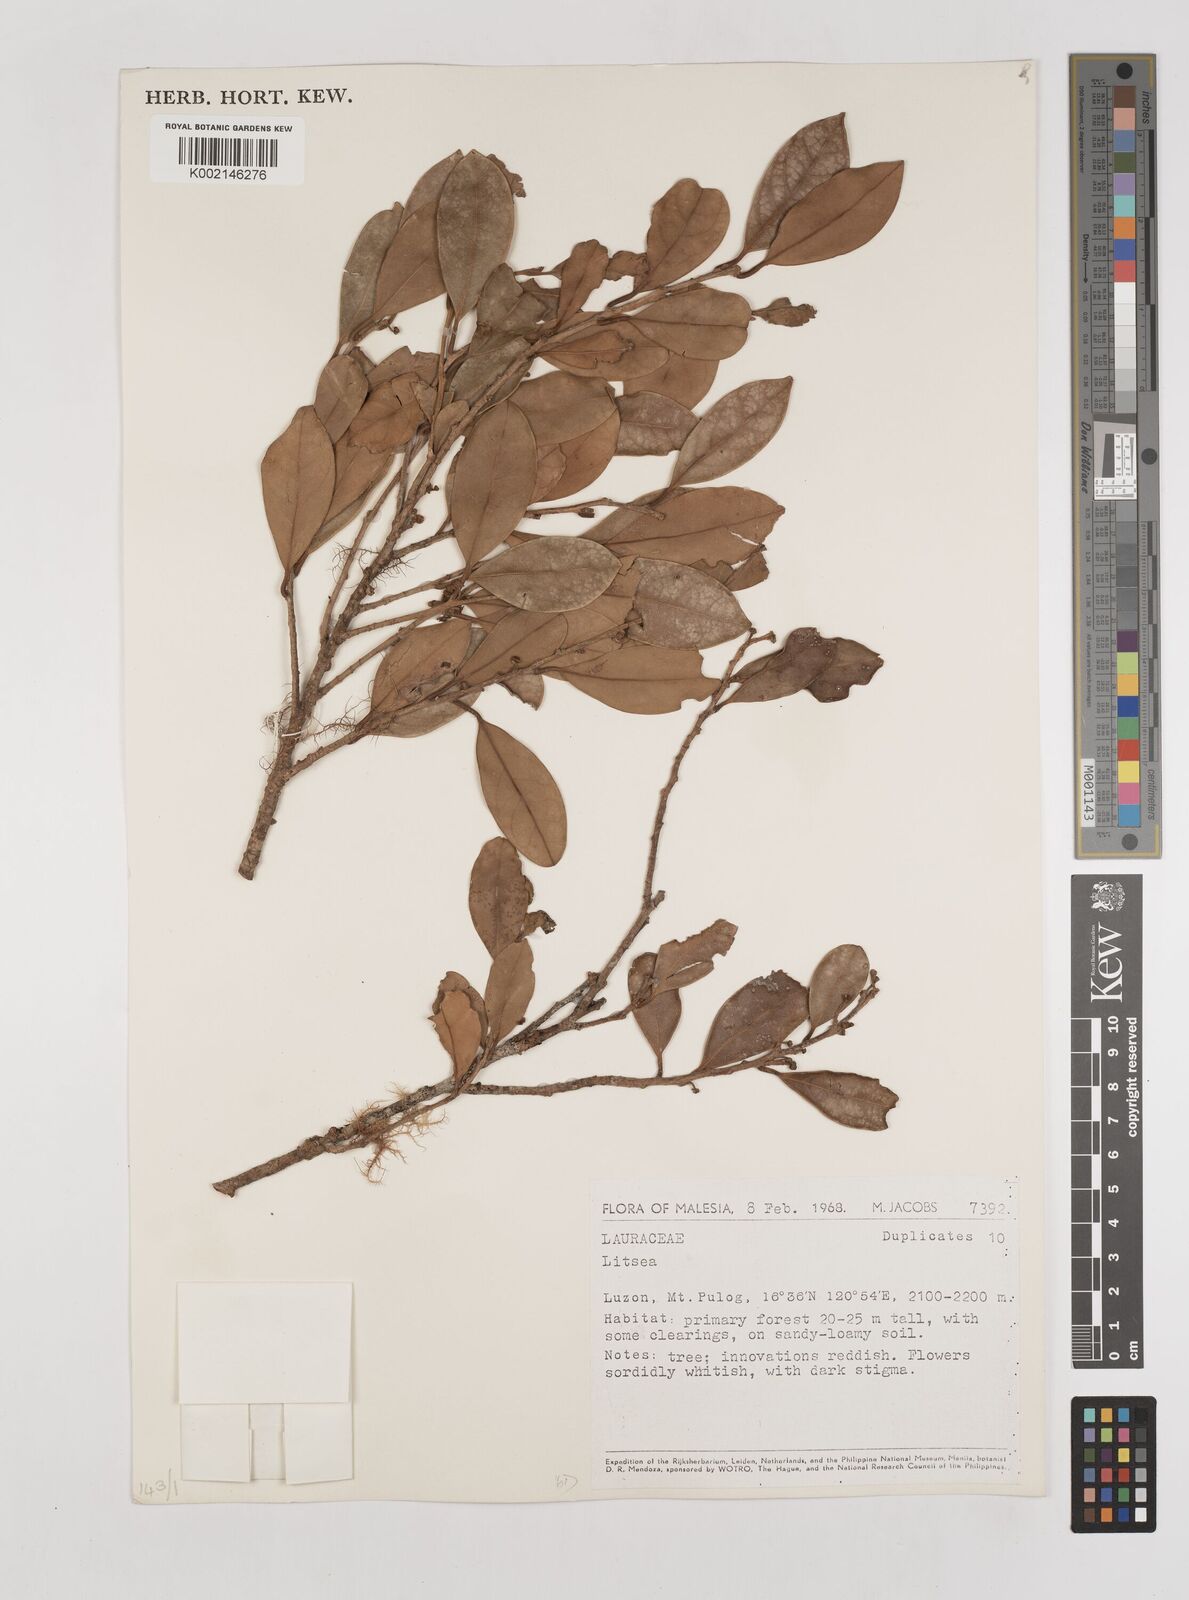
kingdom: Plantae
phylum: Tracheophyta
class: Magnoliopsida
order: Laurales
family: Lauraceae
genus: Litsea
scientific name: Litsea
